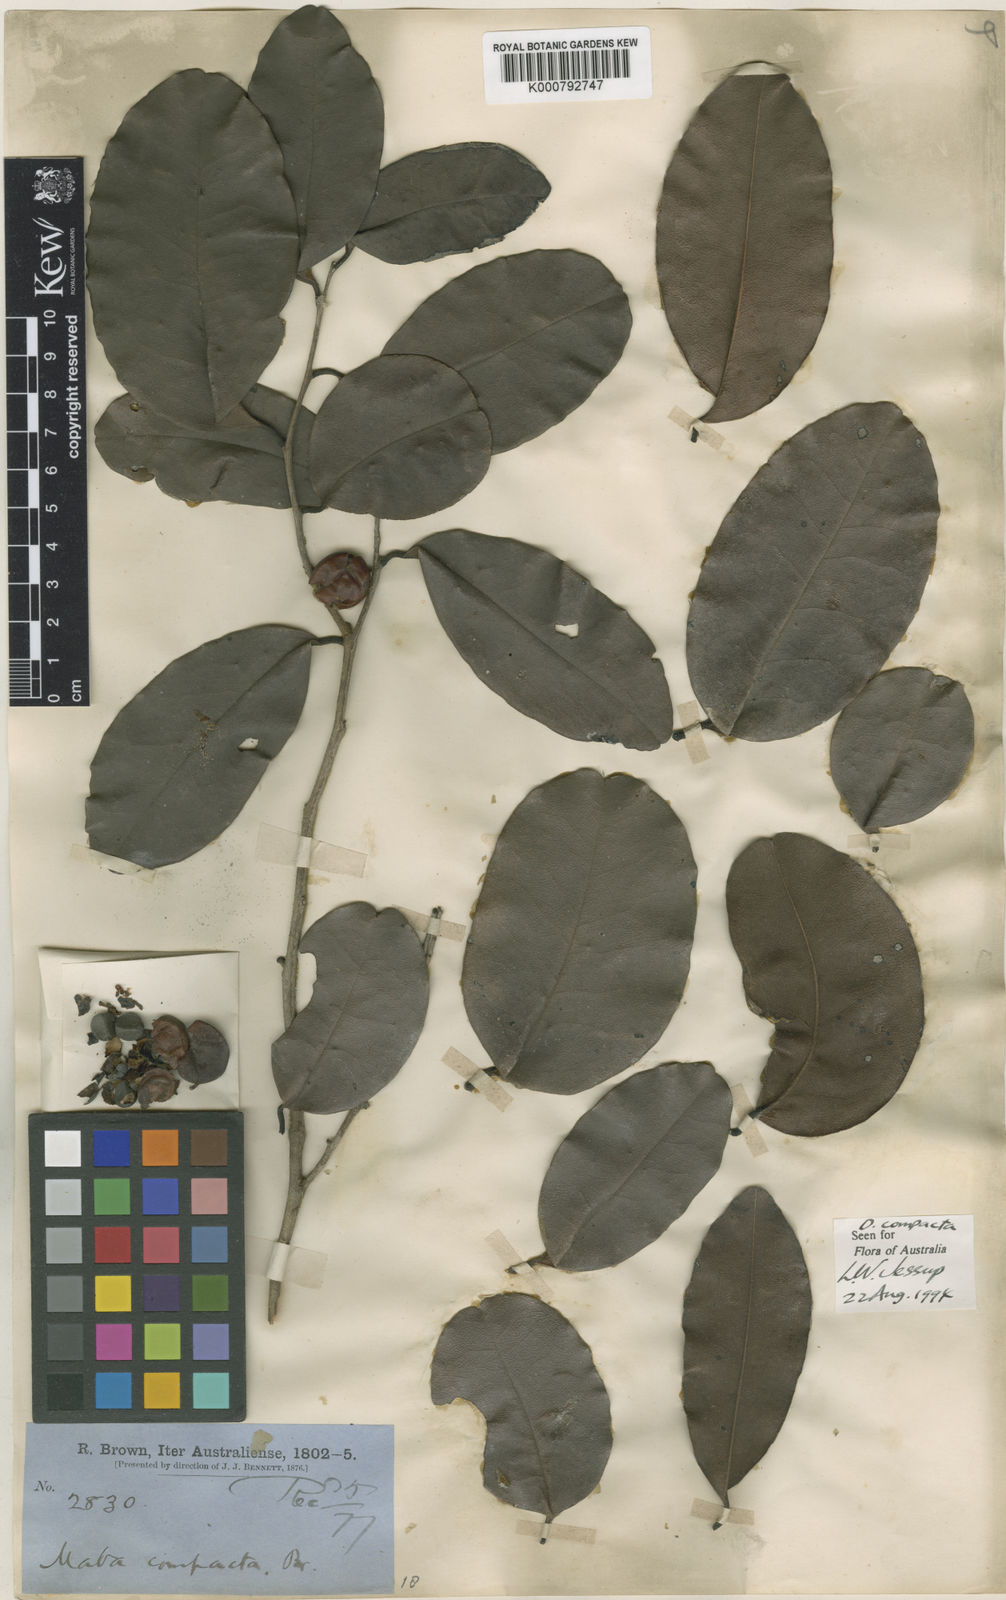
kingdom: Plantae
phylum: Tracheophyta
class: Magnoliopsida
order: Ericales
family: Ebenaceae
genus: Diospyros
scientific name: Diospyros compacta
